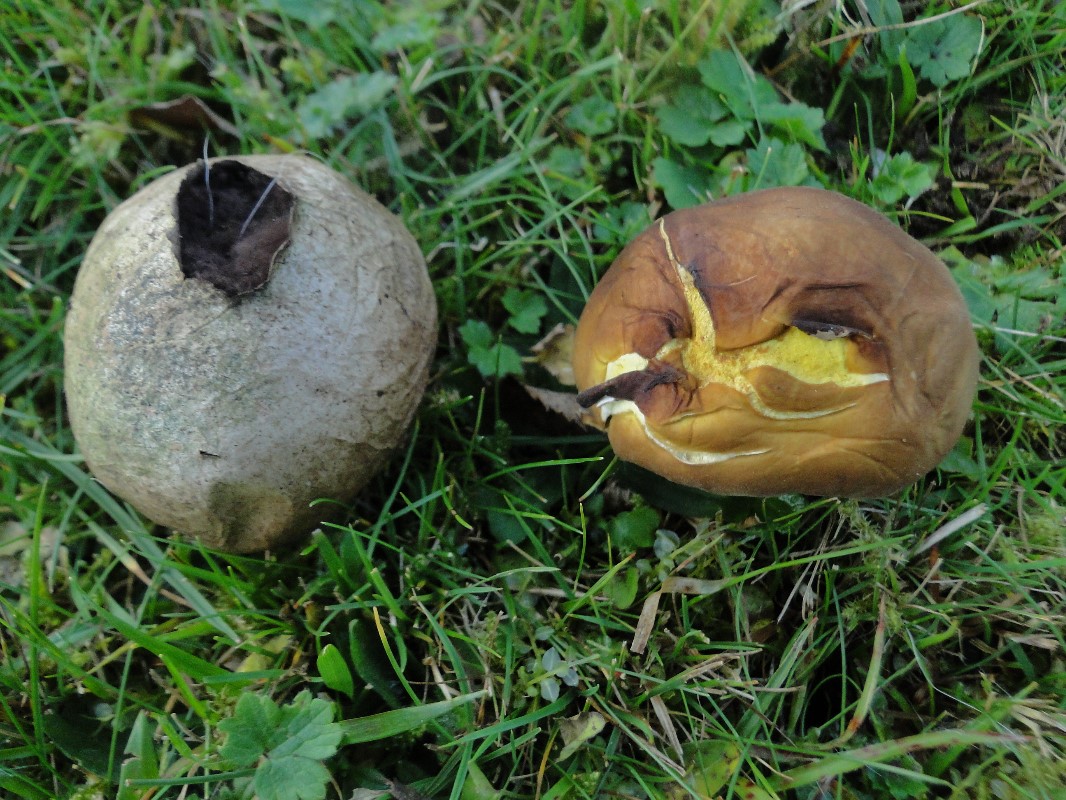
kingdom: Fungi
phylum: Basidiomycota
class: Agaricomycetes
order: Agaricales
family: Lycoperdaceae
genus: Bovista
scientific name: Bovista plumbea
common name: blygrå bovist
